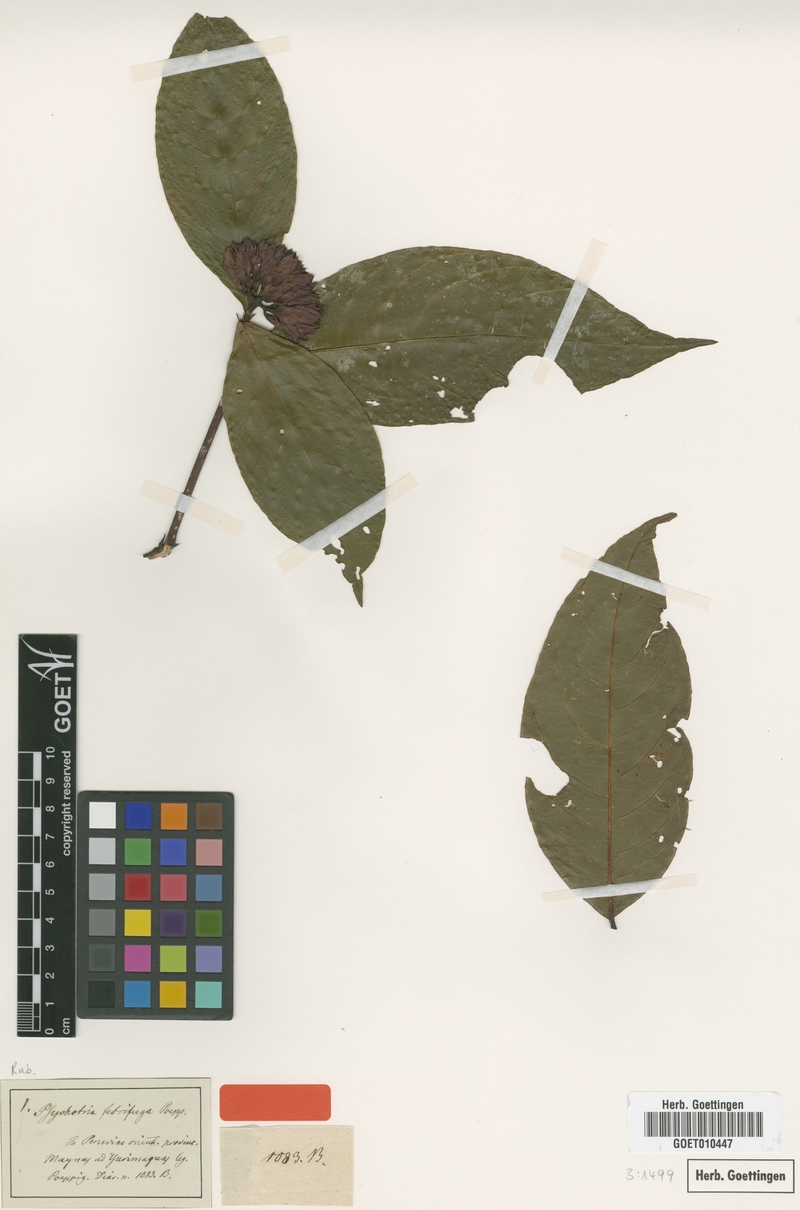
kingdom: Plantae
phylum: Tracheophyta
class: Magnoliopsida
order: Gentianales
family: Rubiaceae
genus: Psychotria
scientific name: Psychotria febrifuga
